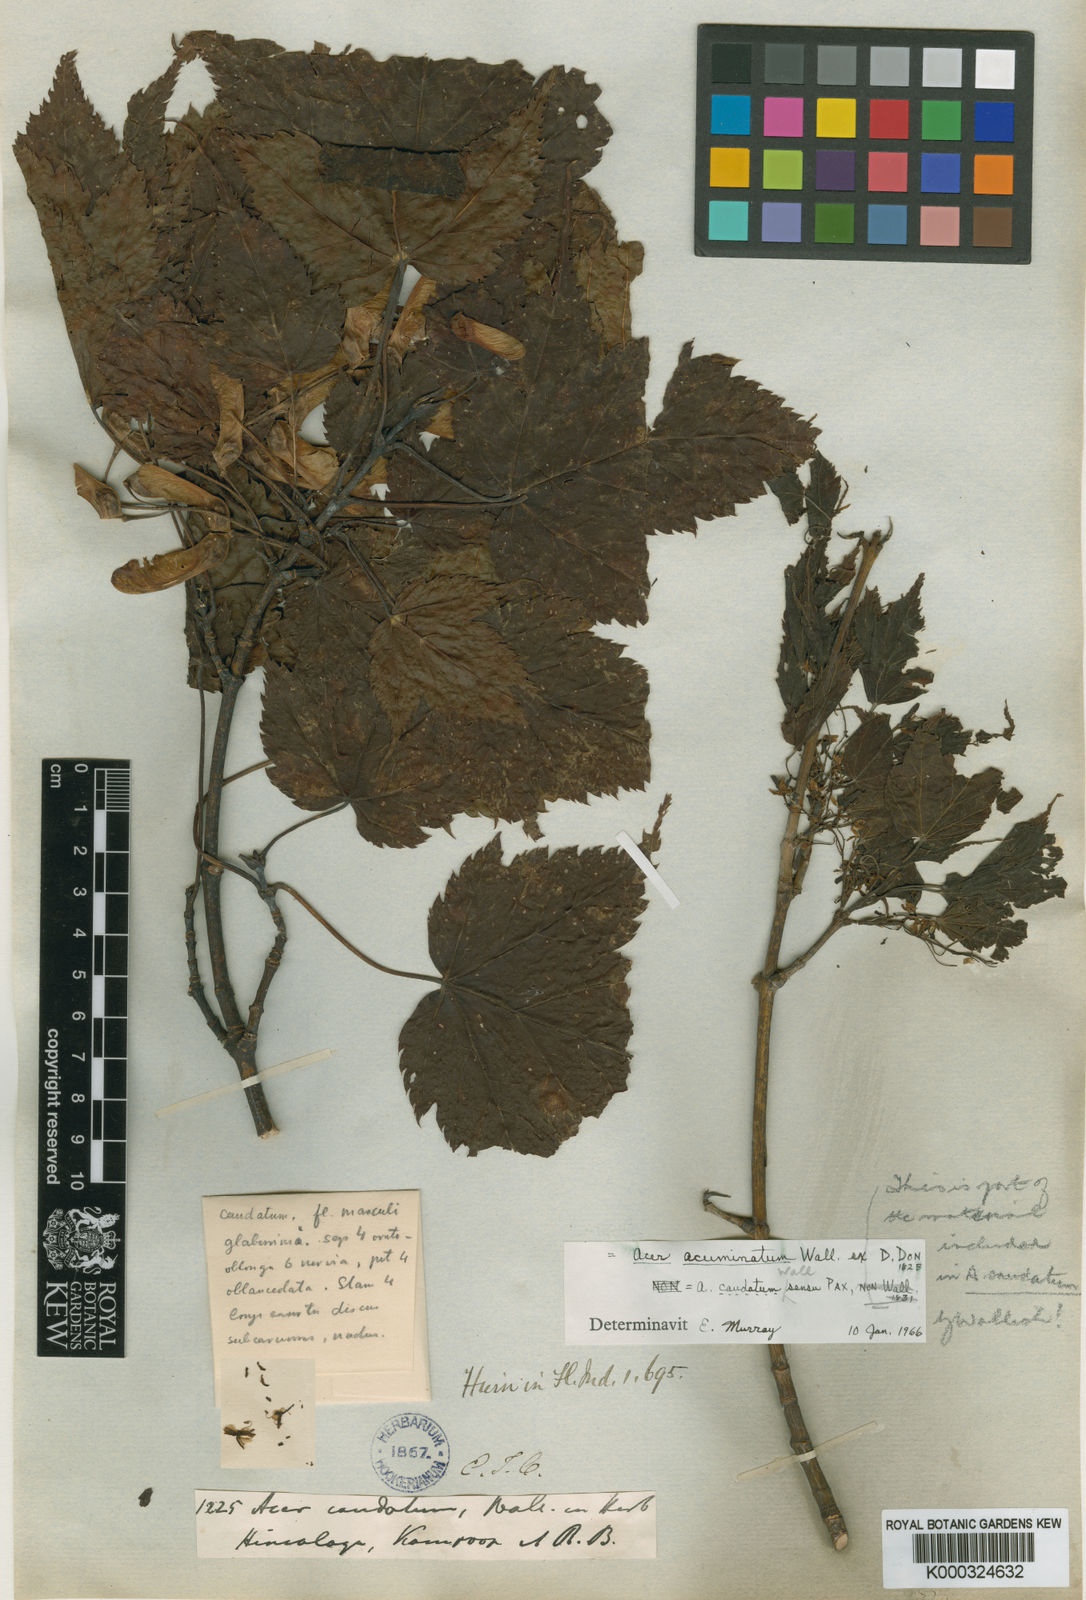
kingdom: Plantae
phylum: Tracheophyta
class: Magnoliopsida
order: Sapindales
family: Sapindaceae
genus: Acer
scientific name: Acer acuminatum
